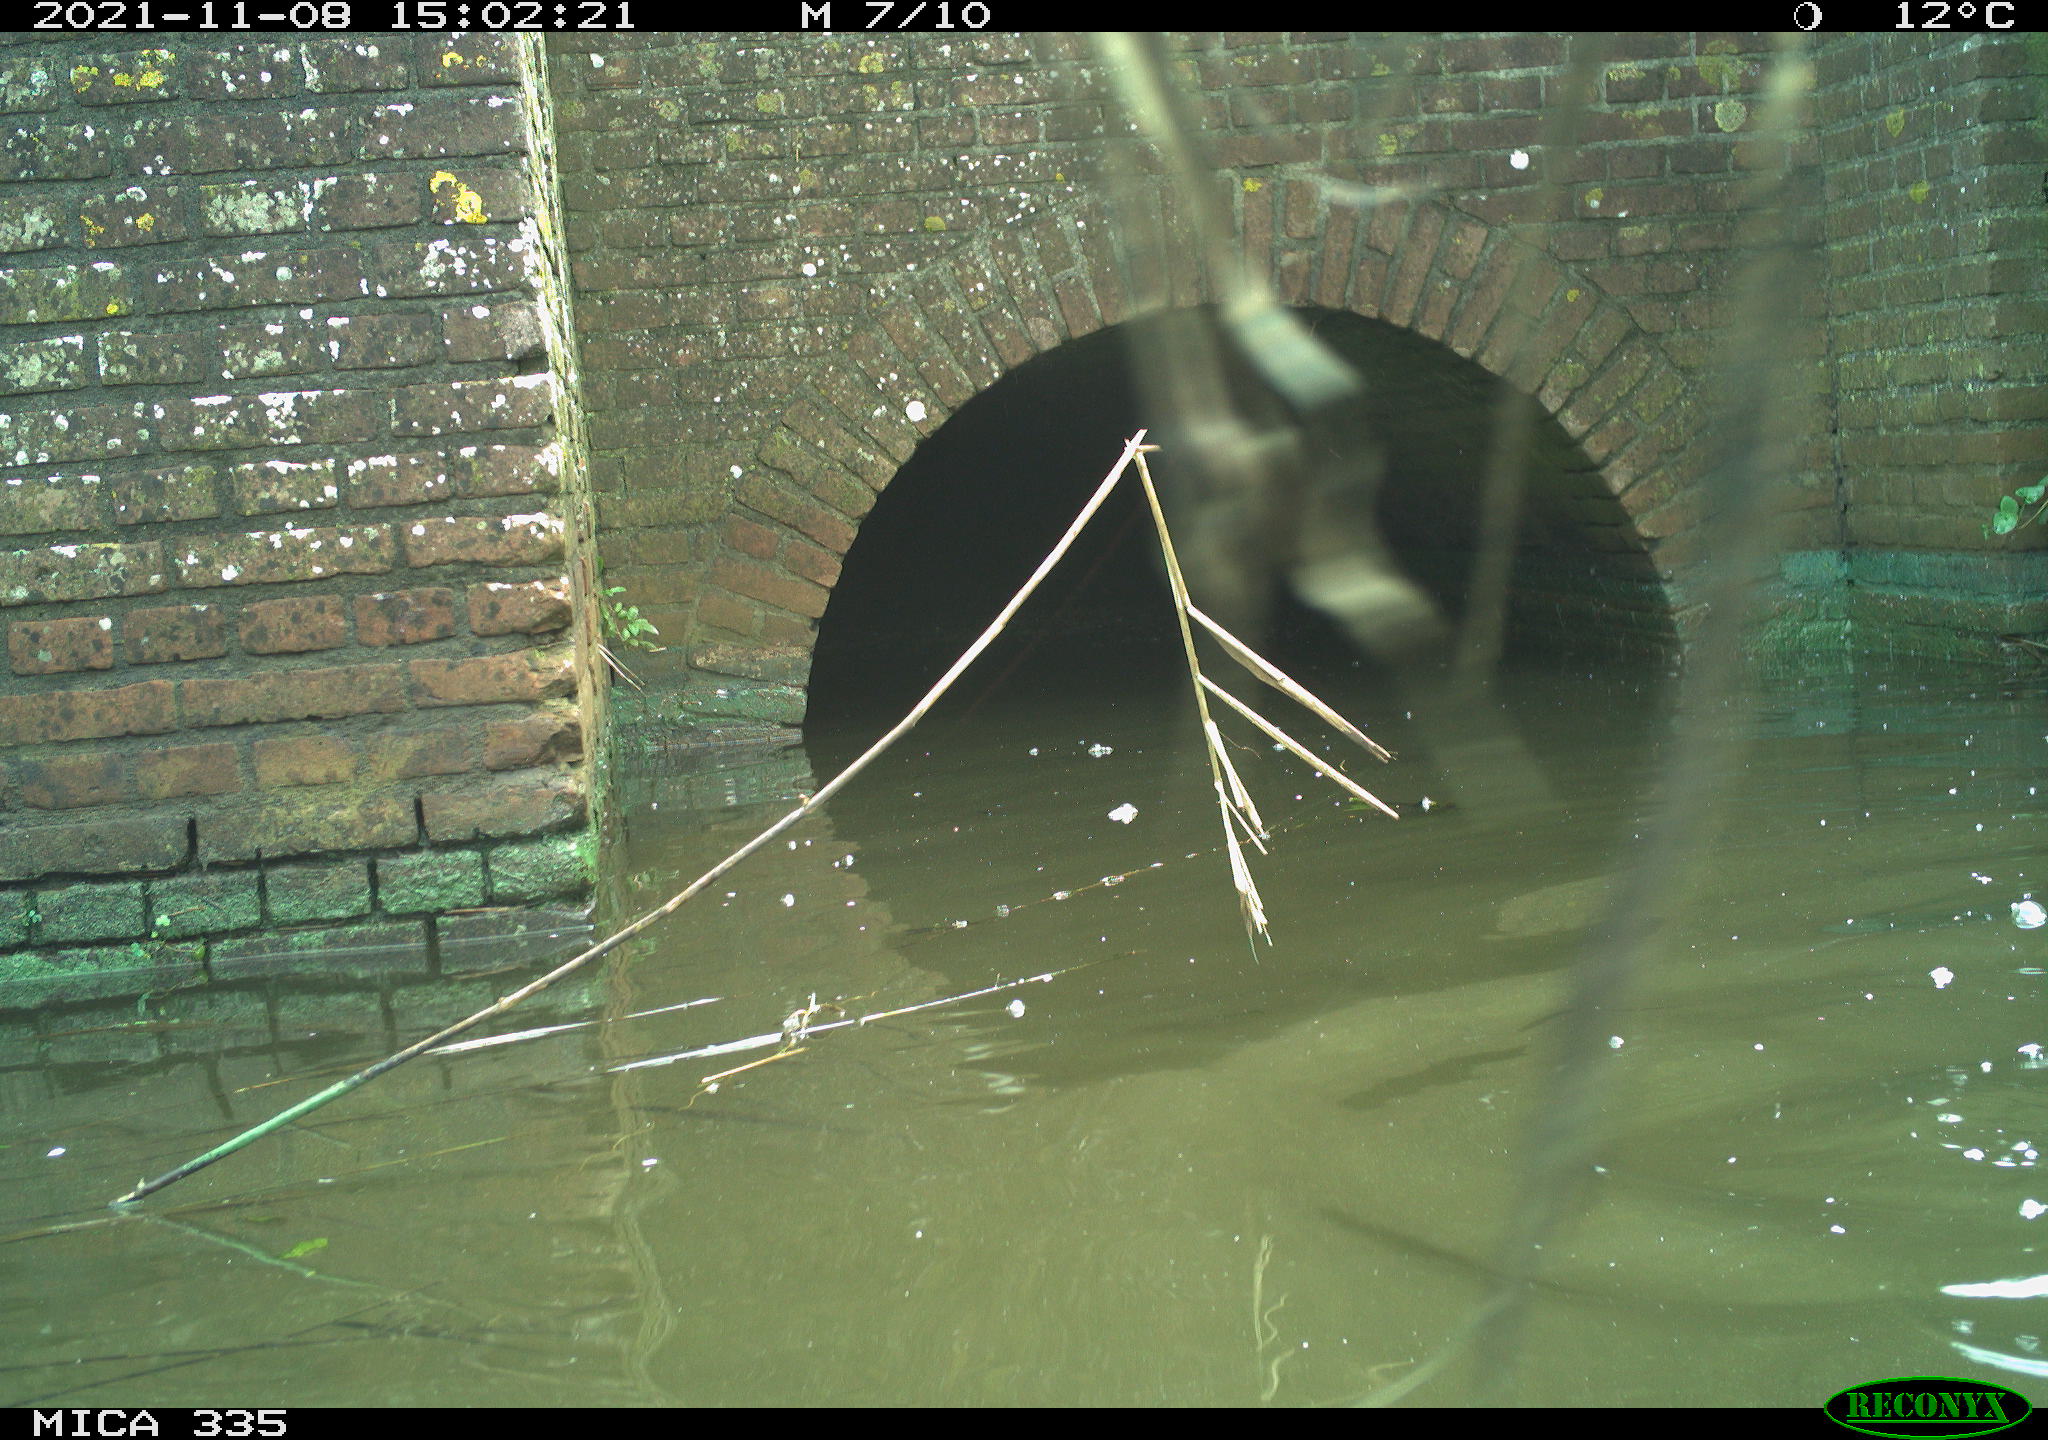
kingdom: Animalia
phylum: Chordata
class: Aves
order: Suliformes
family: Phalacrocoracidae
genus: Phalacrocorax
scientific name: Phalacrocorax carbo
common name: Great cormorant
